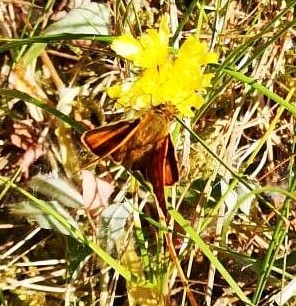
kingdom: Animalia
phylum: Arthropoda
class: Insecta
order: Lepidoptera
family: Hesperiidae
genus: Ochlodes
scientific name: Ochlodes venata
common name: Stor bredpande
